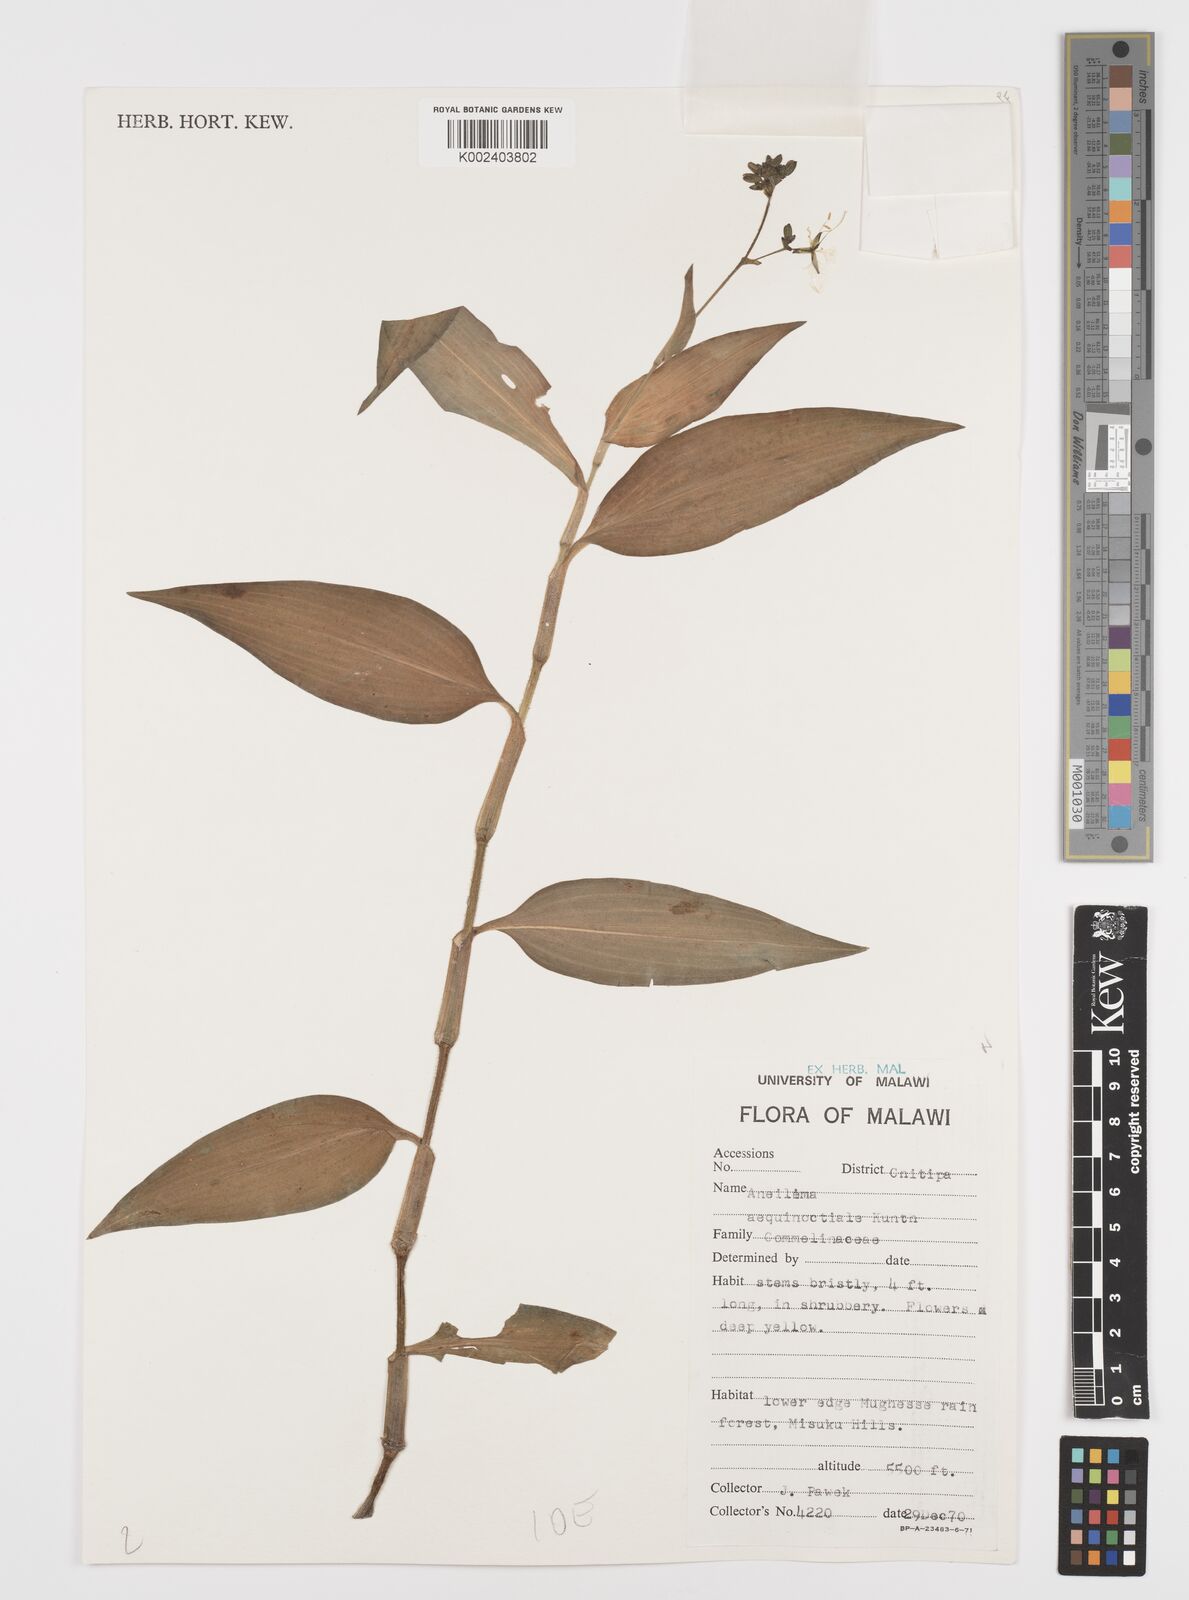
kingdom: Plantae
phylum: Tracheophyta
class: Liliopsida
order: Commelinales
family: Commelinaceae
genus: Aneilema
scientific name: Aneilema aequinoctiale
